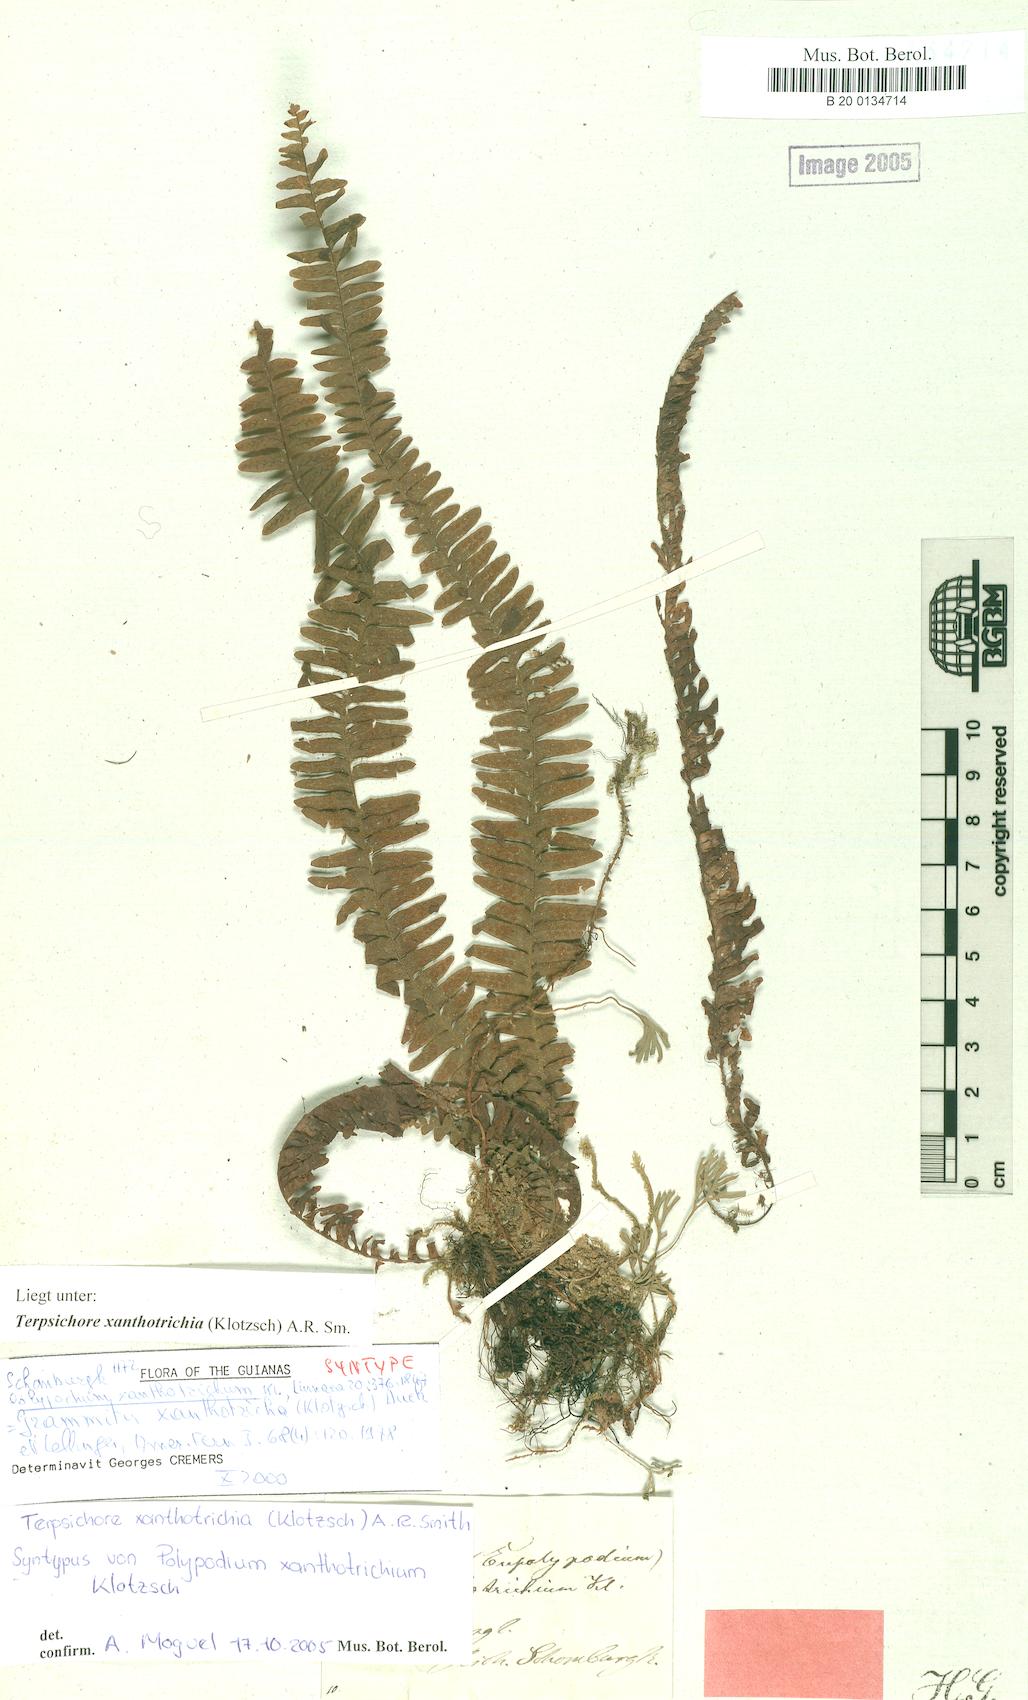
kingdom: Plantae
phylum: Tracheophyta
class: Polypodiopsida
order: Polypodiales
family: Polypodiaceae
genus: Alansmia
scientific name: Alansmia xanthotrichia
